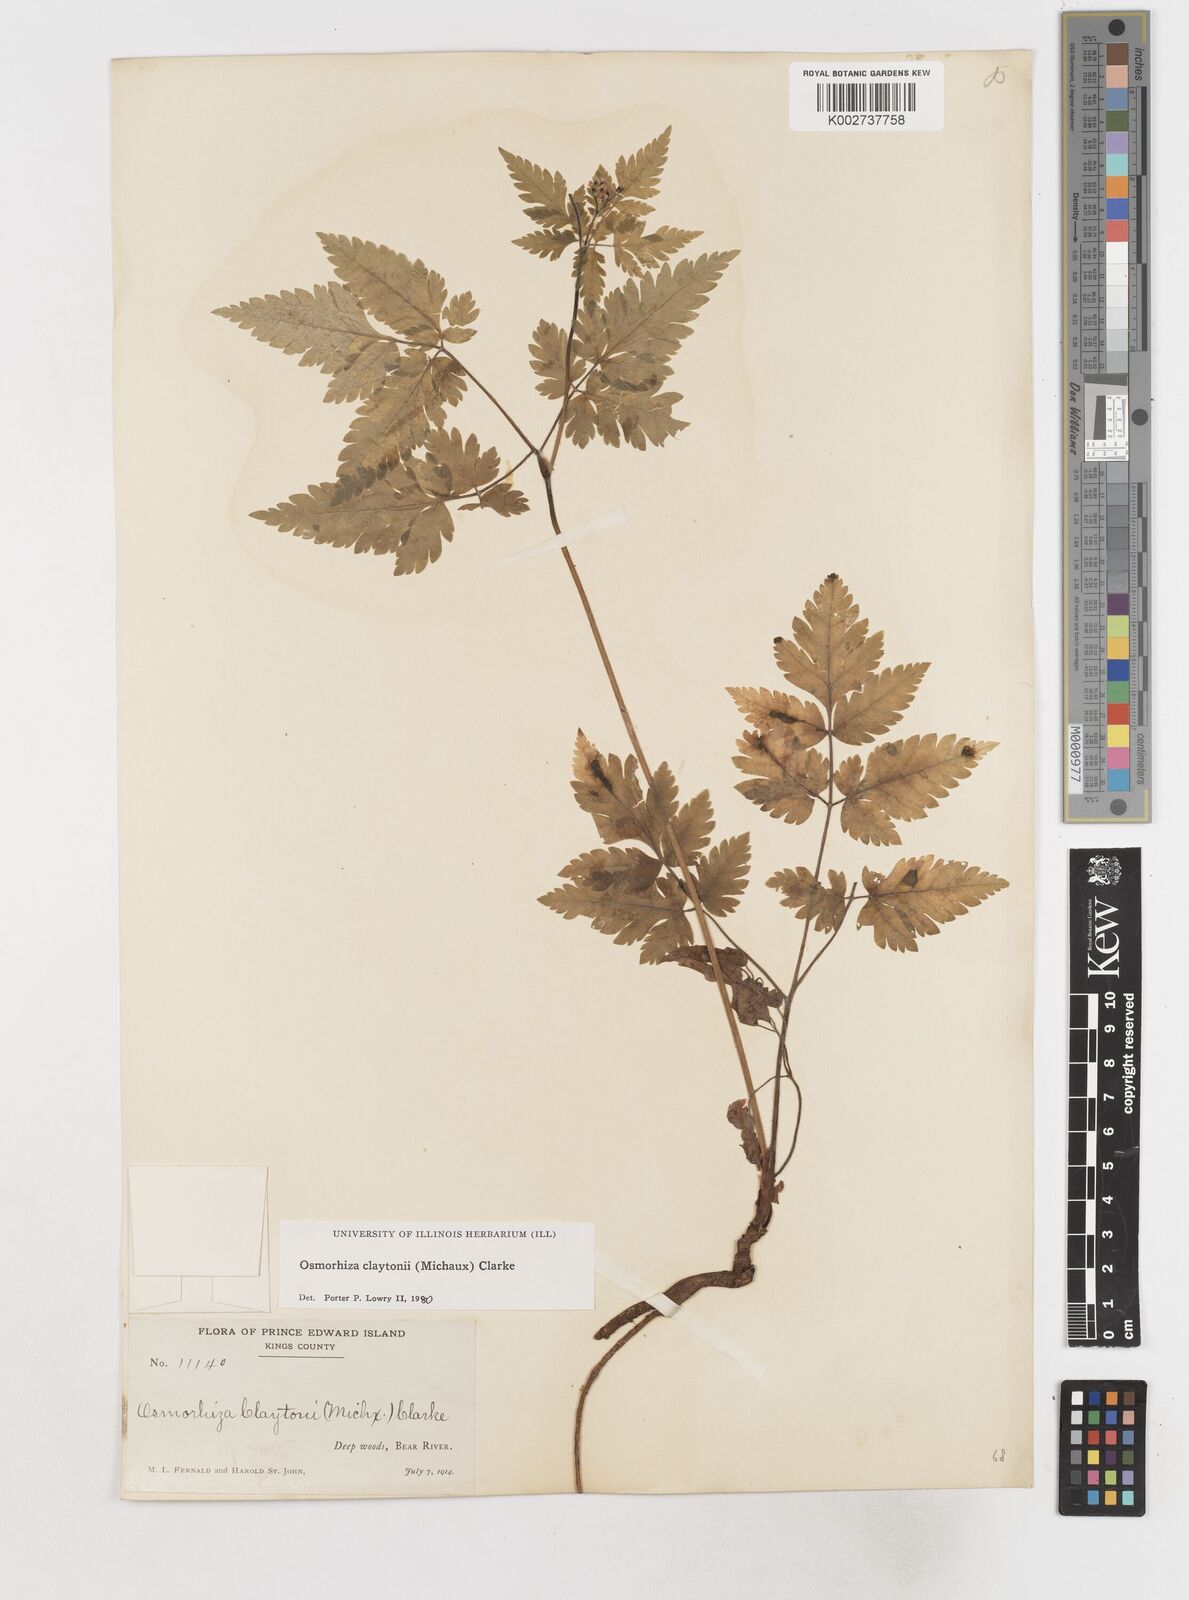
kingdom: Plantae
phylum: Tracheophyta
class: Magnoliopsida
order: Apiales
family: Apiaceae
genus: Osmorhiza
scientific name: Osmorhiza claytonii
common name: Hairy sweet cicely
